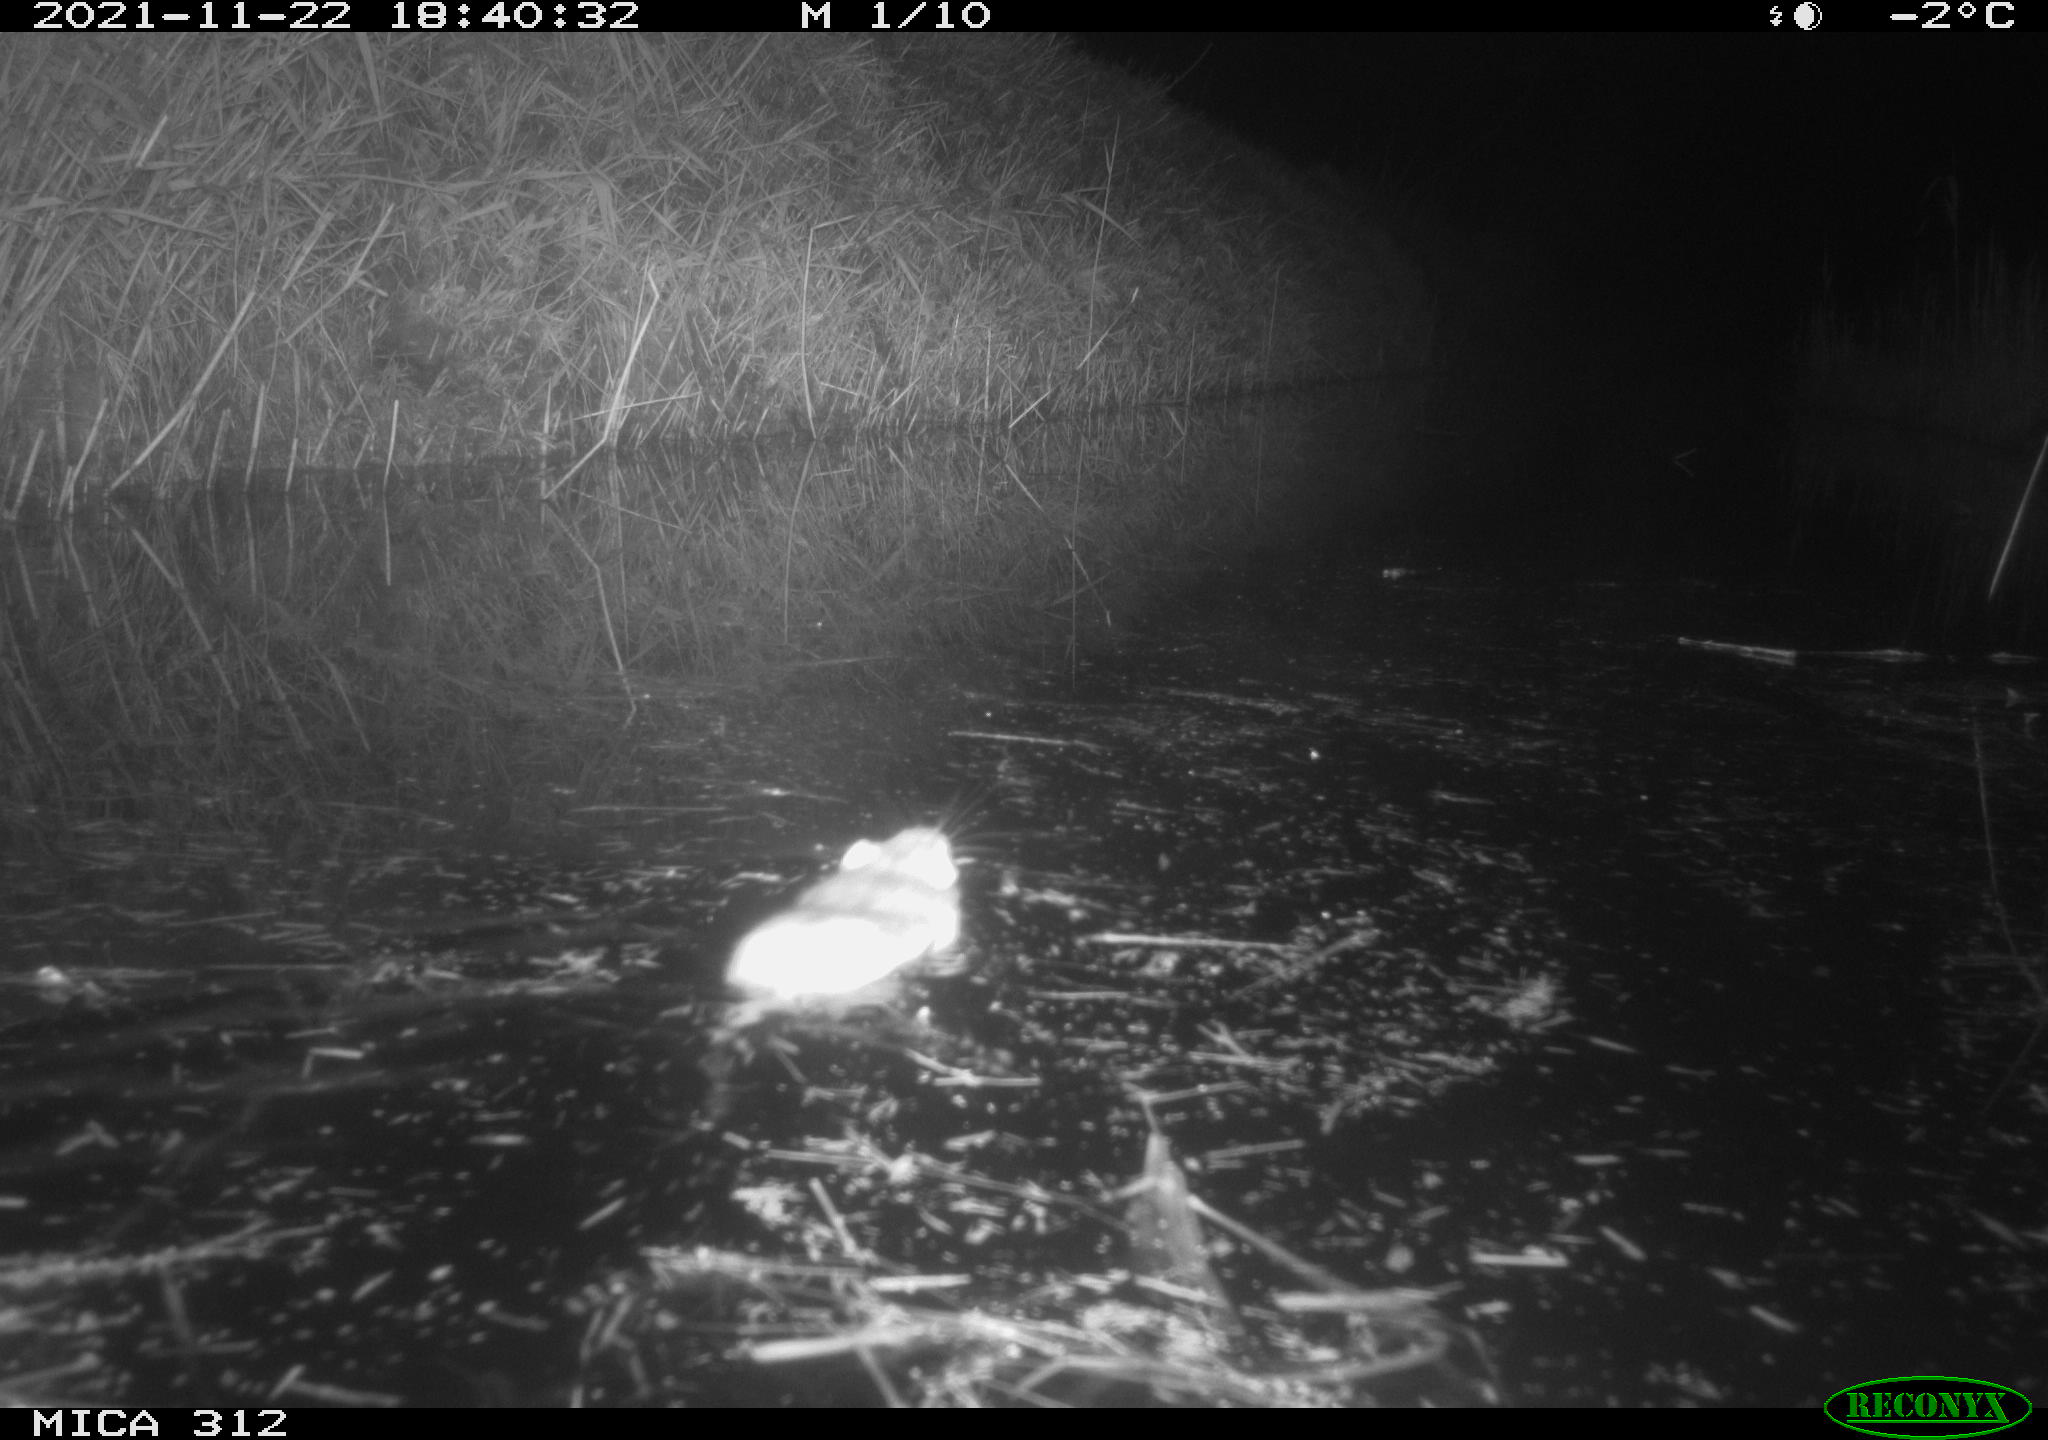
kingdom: Animalia
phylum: Chordata
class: Mammalia
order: Rodentia
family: Muridae
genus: Rattus
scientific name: Rattus norvegicus
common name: Brown rat
